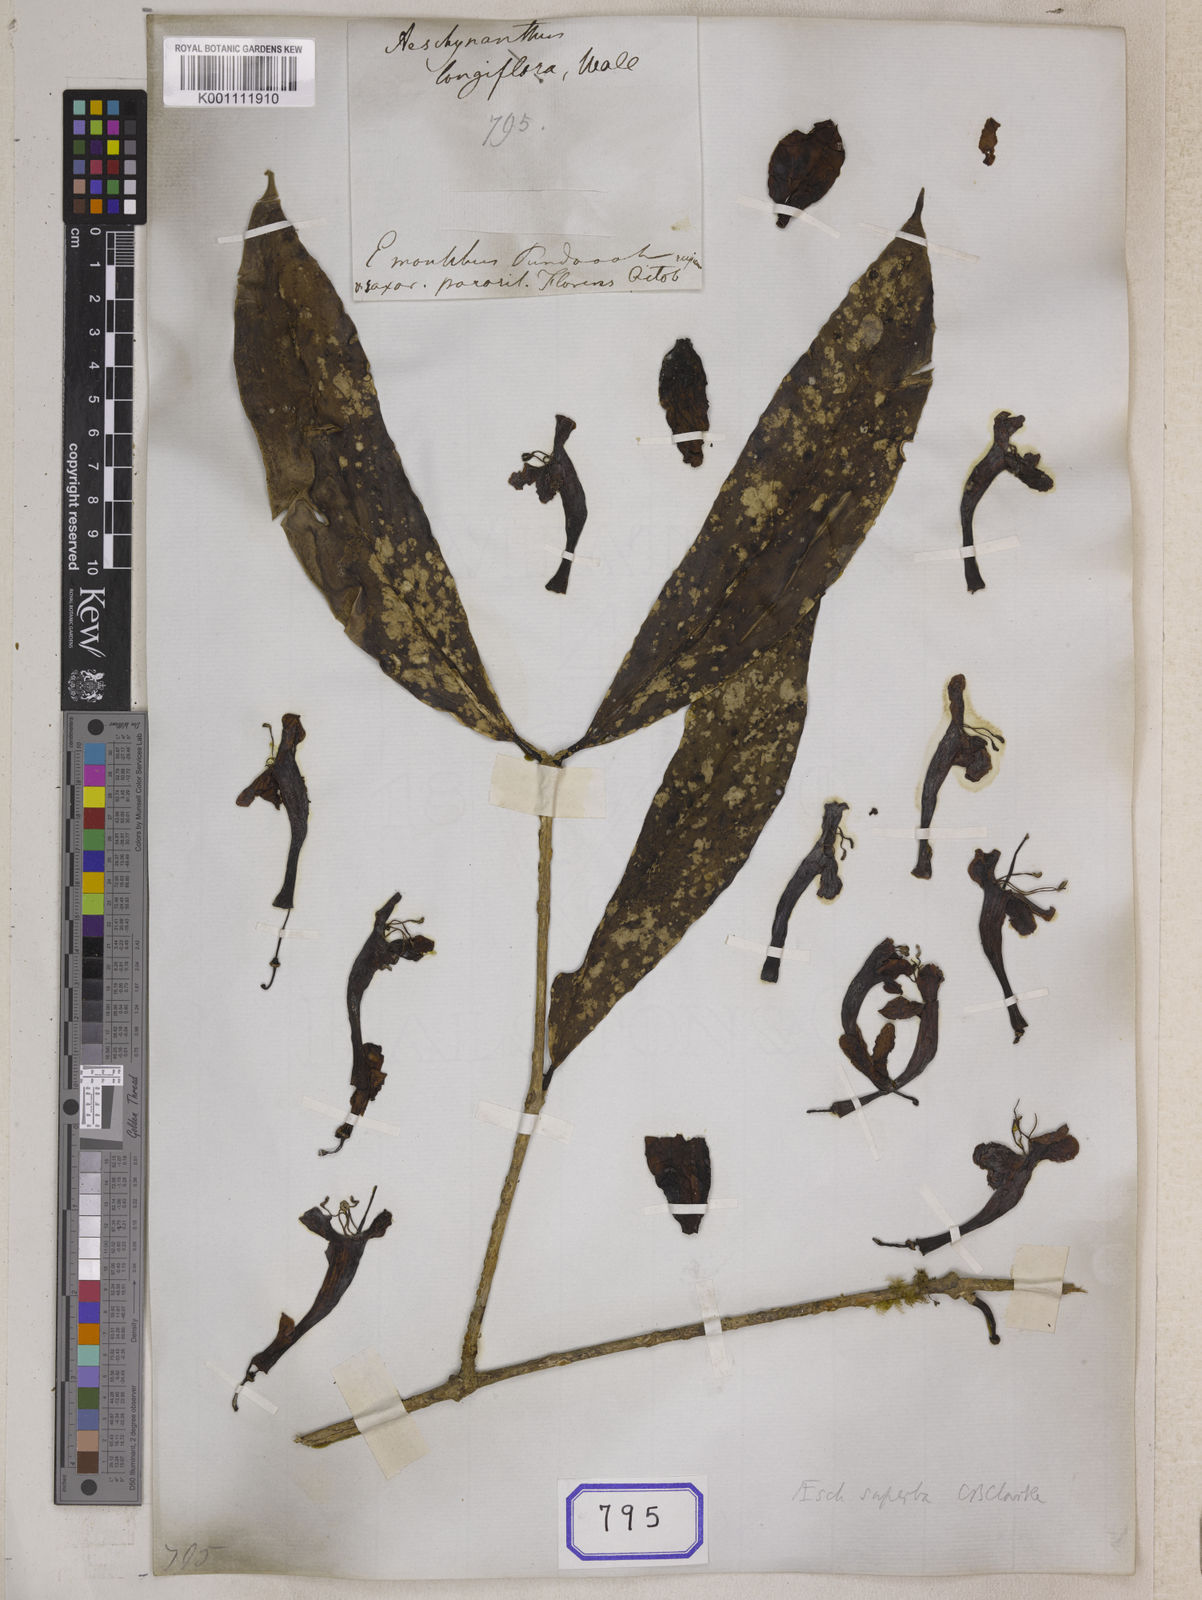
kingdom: Plantae
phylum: Tracheophyta
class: Magnoliopsida
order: Lamiales
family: Gesneriaceae
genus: Aeschynanthus
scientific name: Aeschynanthus
